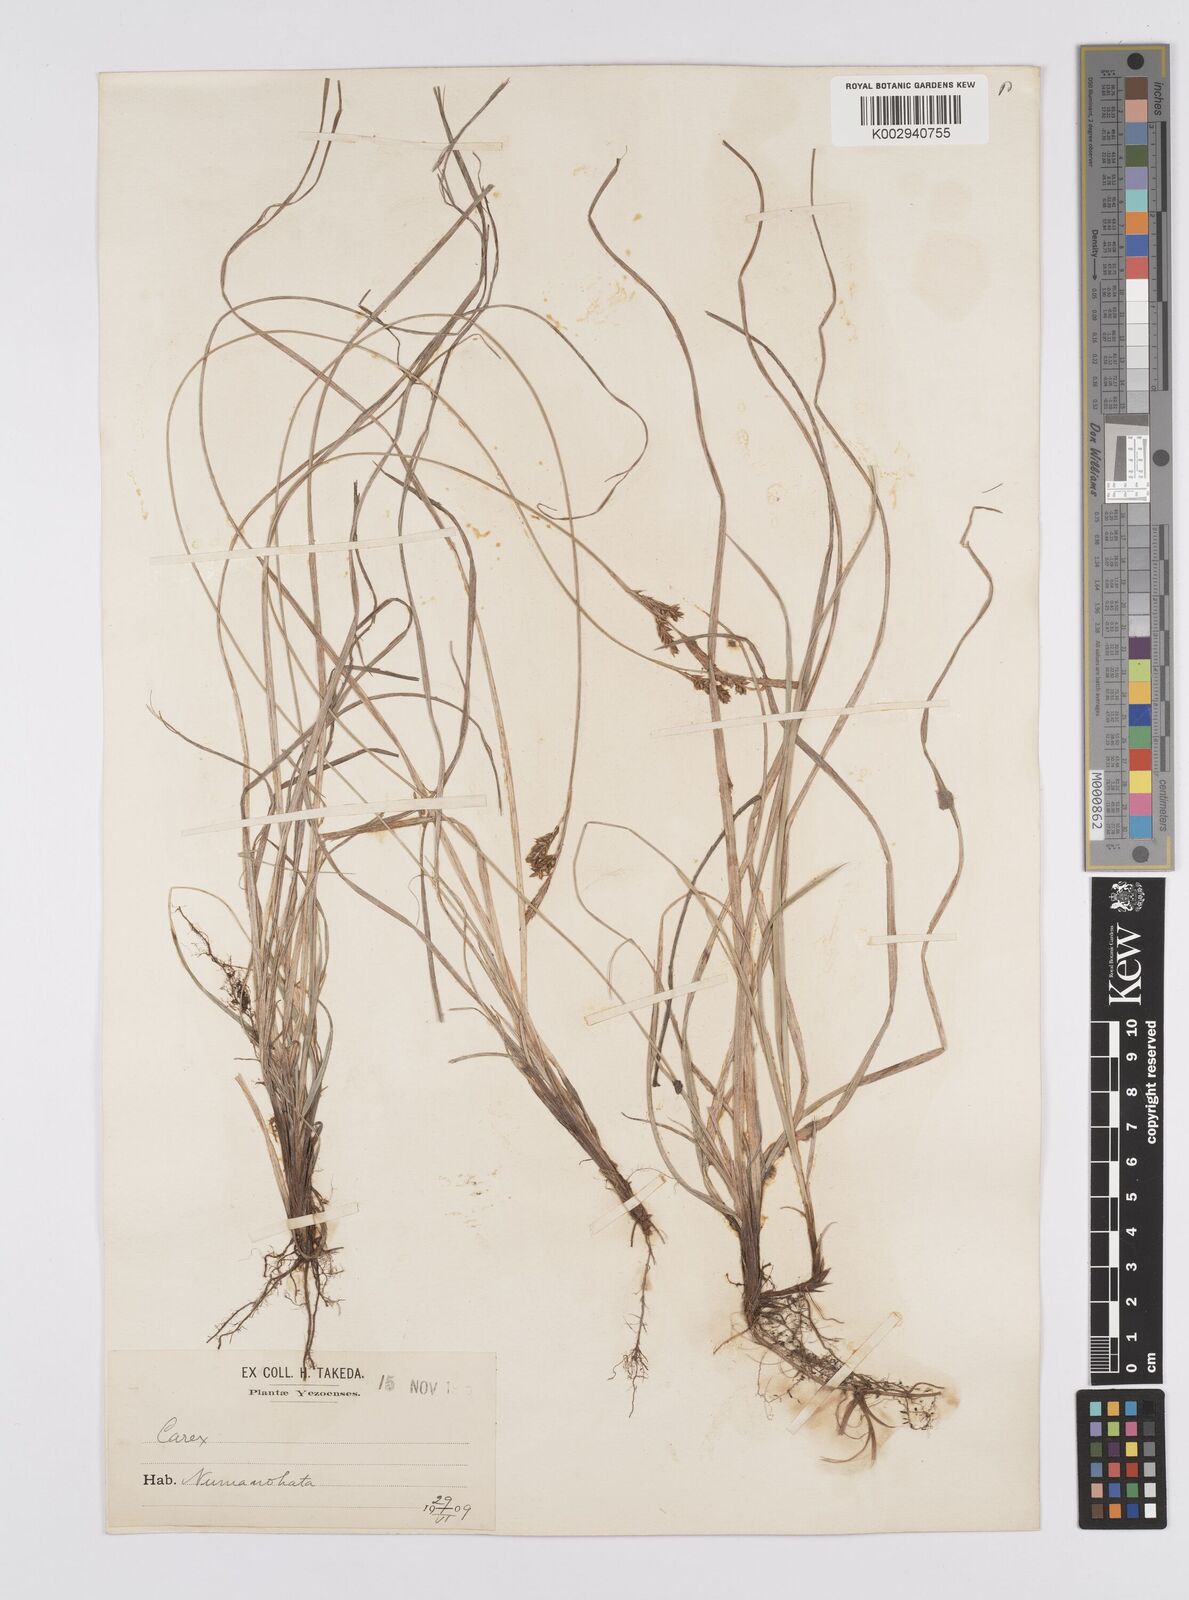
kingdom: Plantae
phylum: Tracheophyta
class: Liliopsida
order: Poales
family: Cyperaceae
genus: Carex
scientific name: Carex umbrosa
